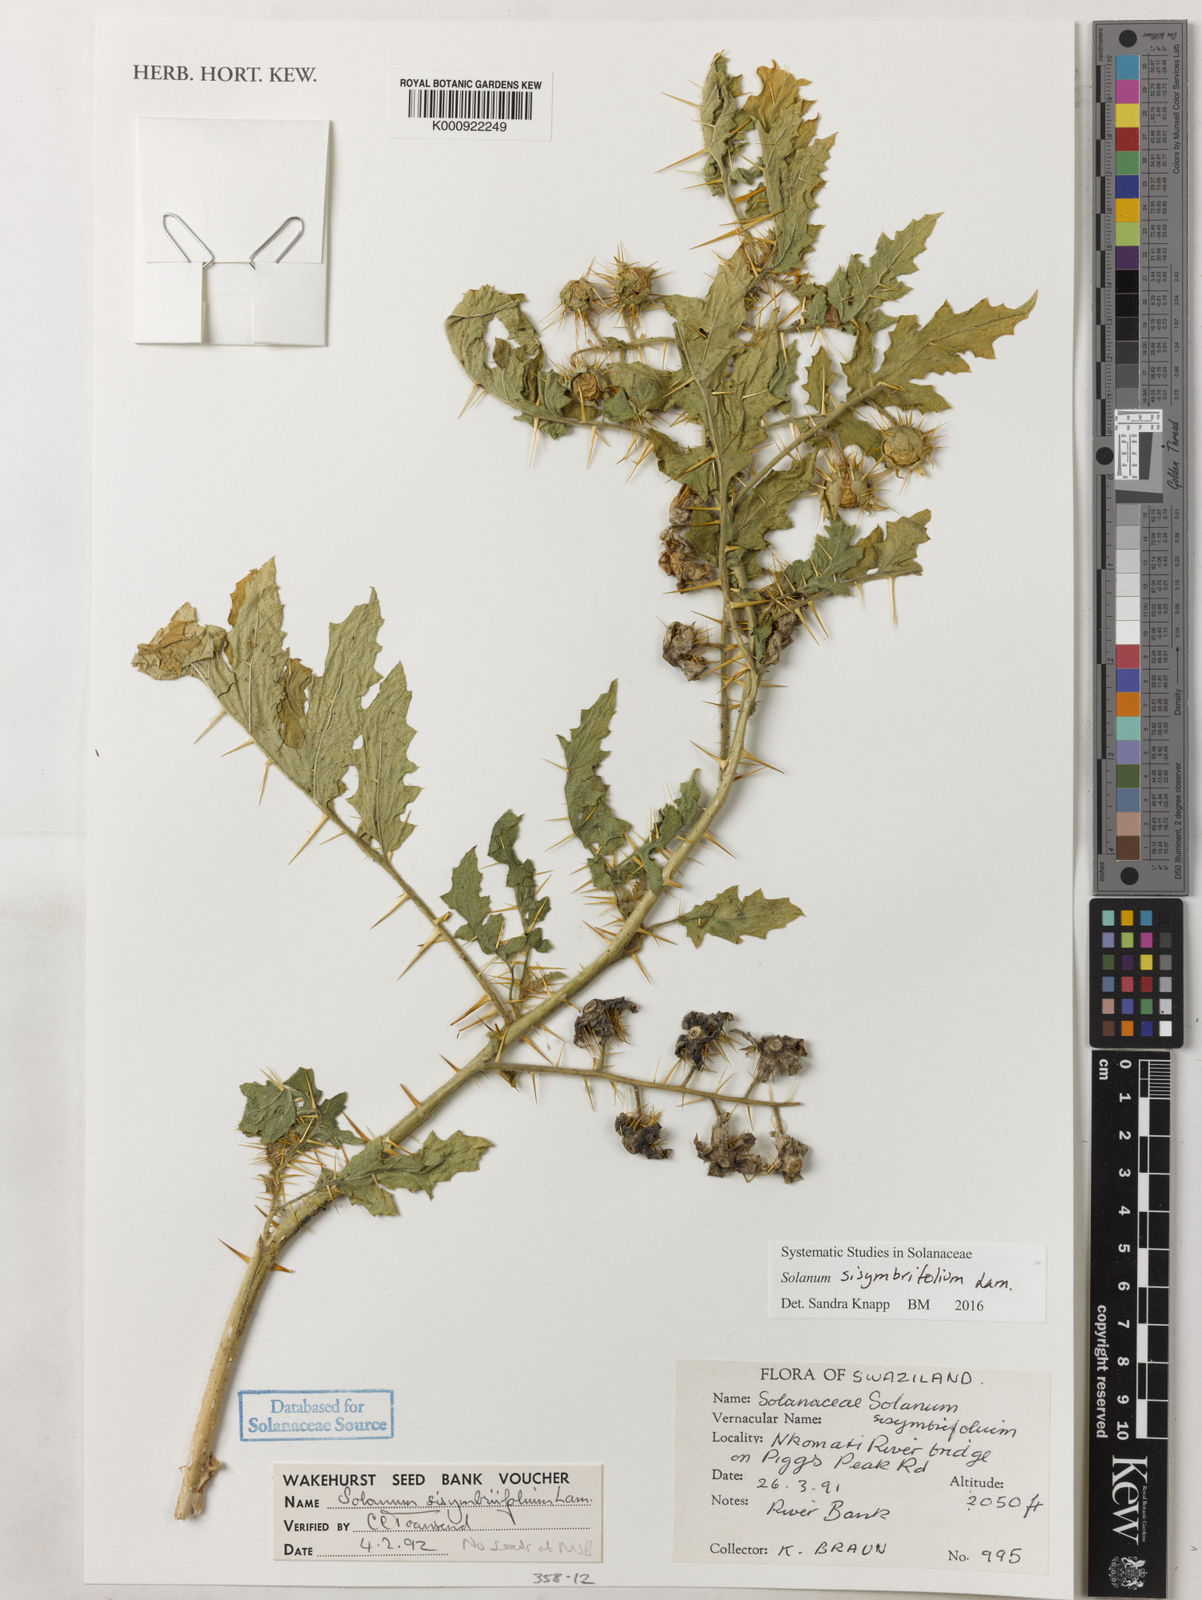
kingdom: Plantae
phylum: Tracheophyta
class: Magnoliopsida
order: Solanales
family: Solanaceae
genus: Solanum
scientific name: Solanum sisymbriifolium
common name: Red buffalo-bur
